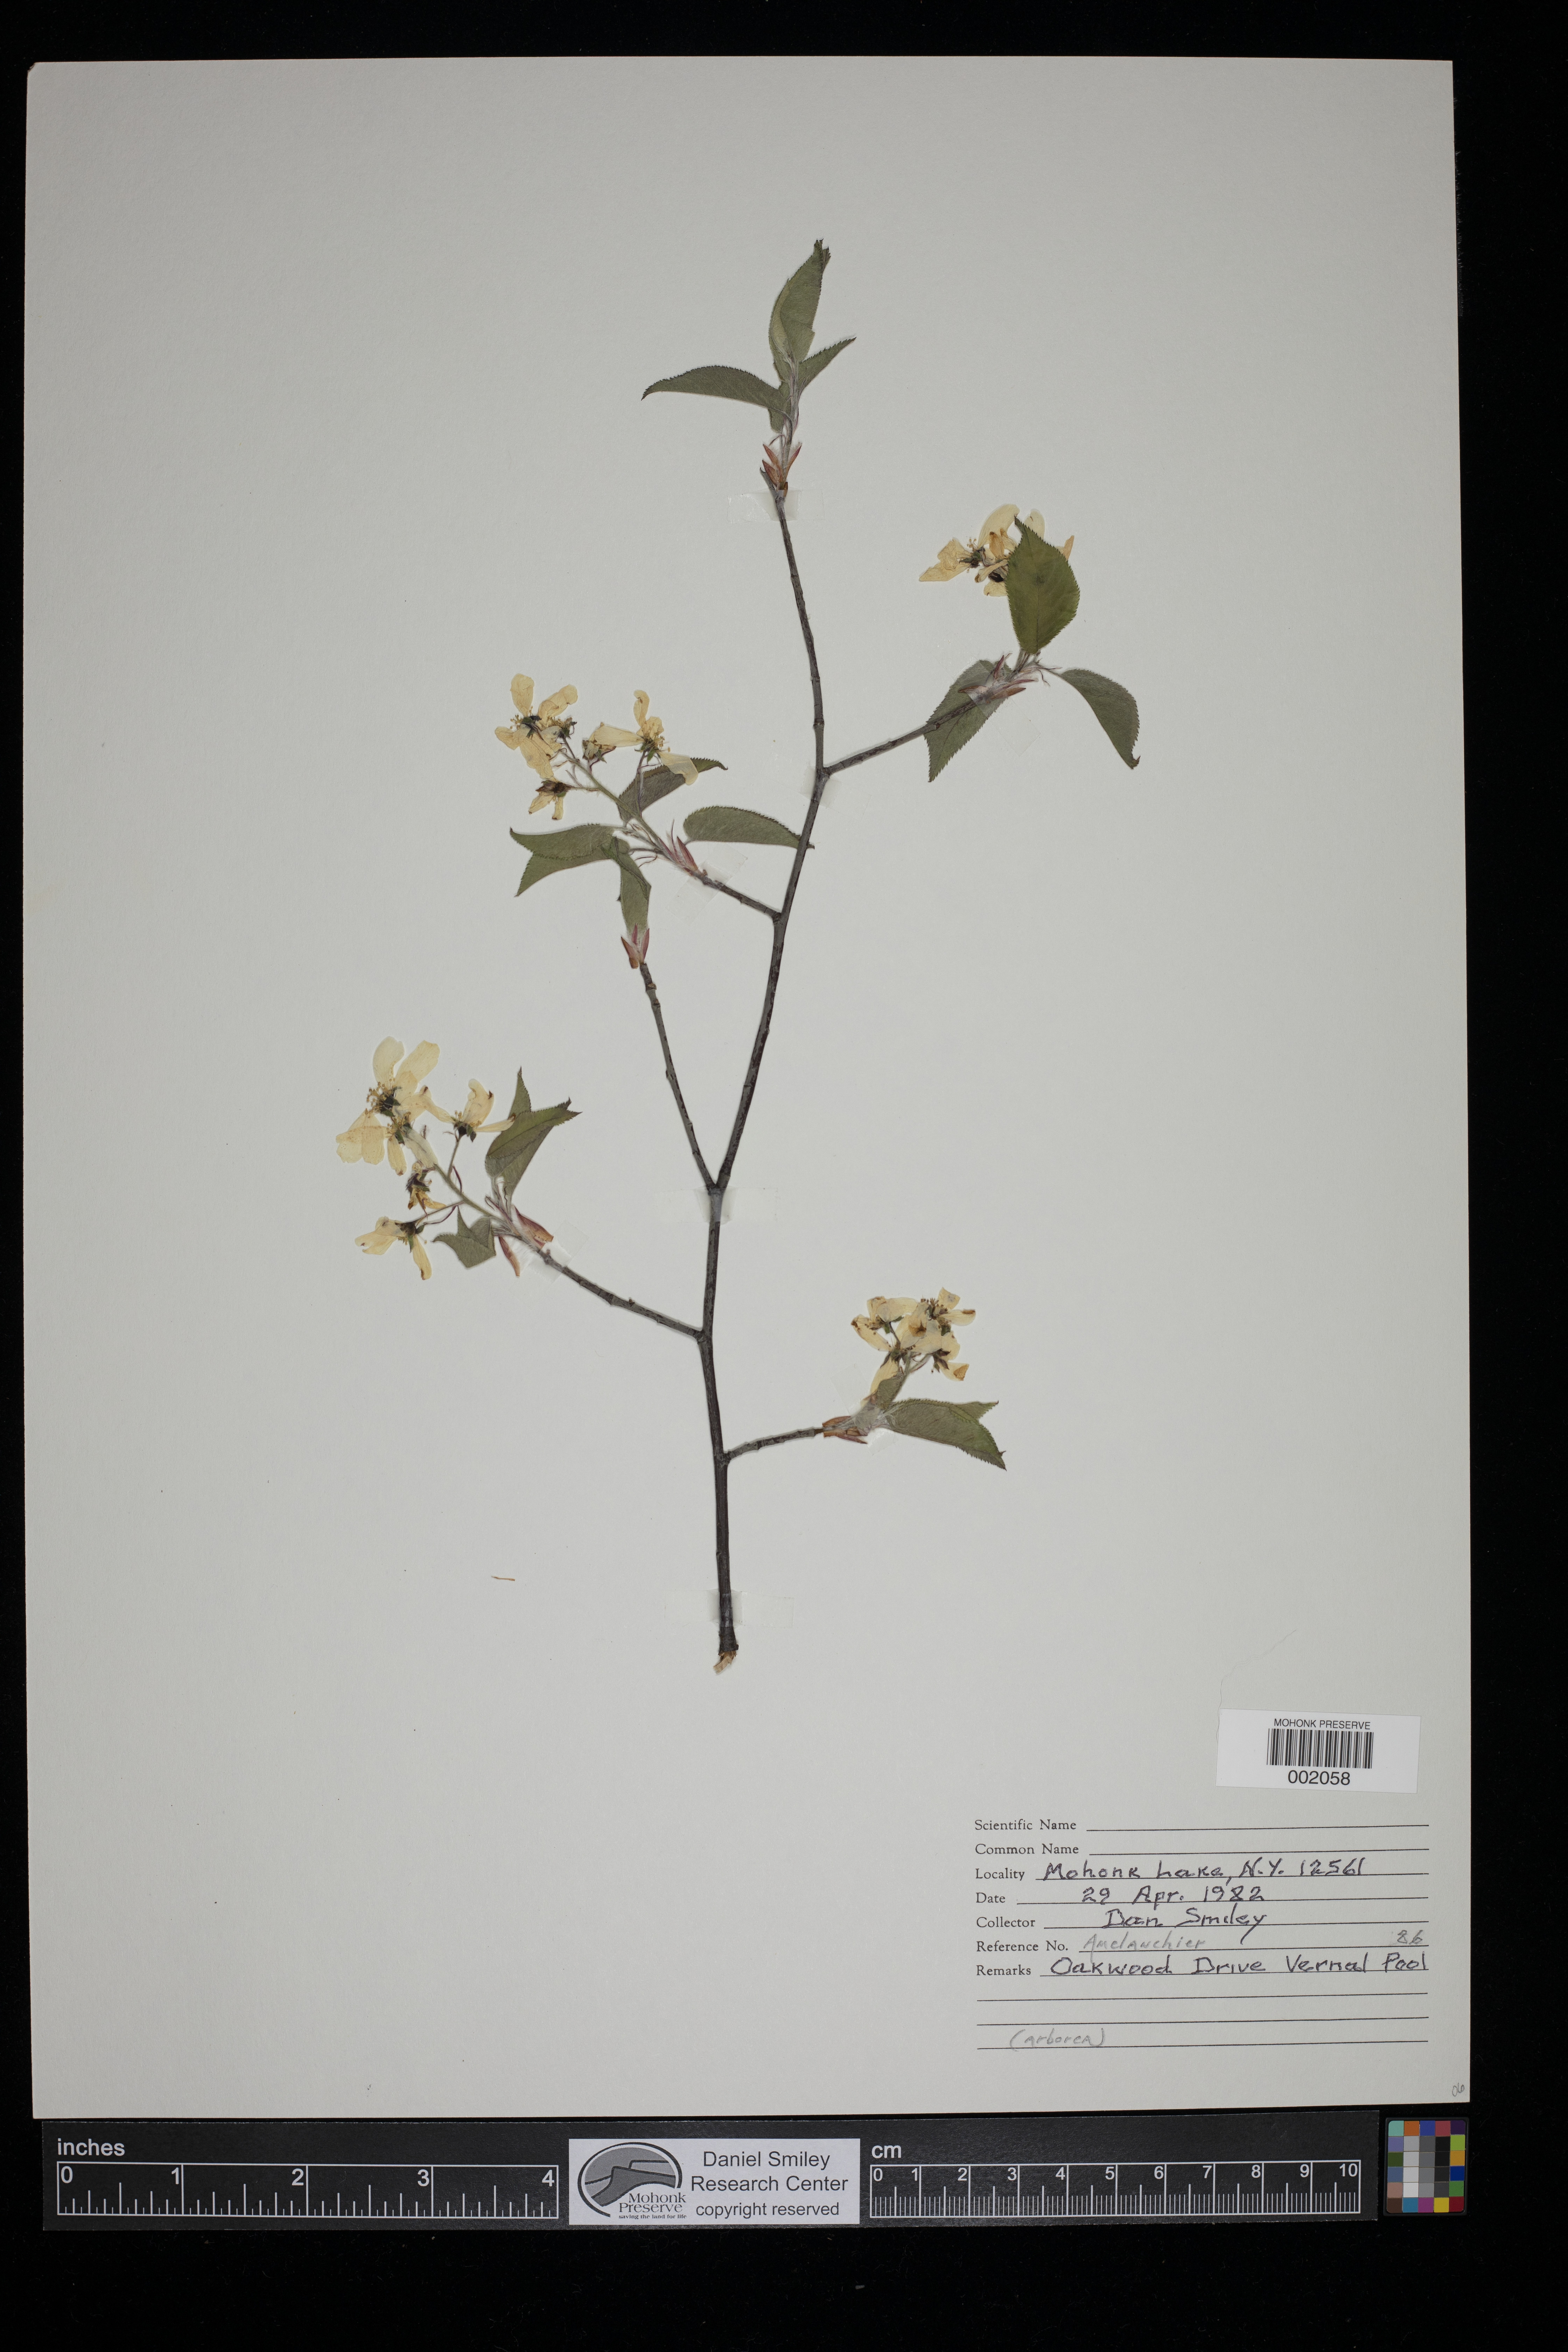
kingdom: Plantae
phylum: Tracheophyta
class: Magnoliopsida
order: Rosales
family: Rosaceae
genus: Amelanchier
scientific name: Amelanchier arborea
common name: Downy serviceberry
